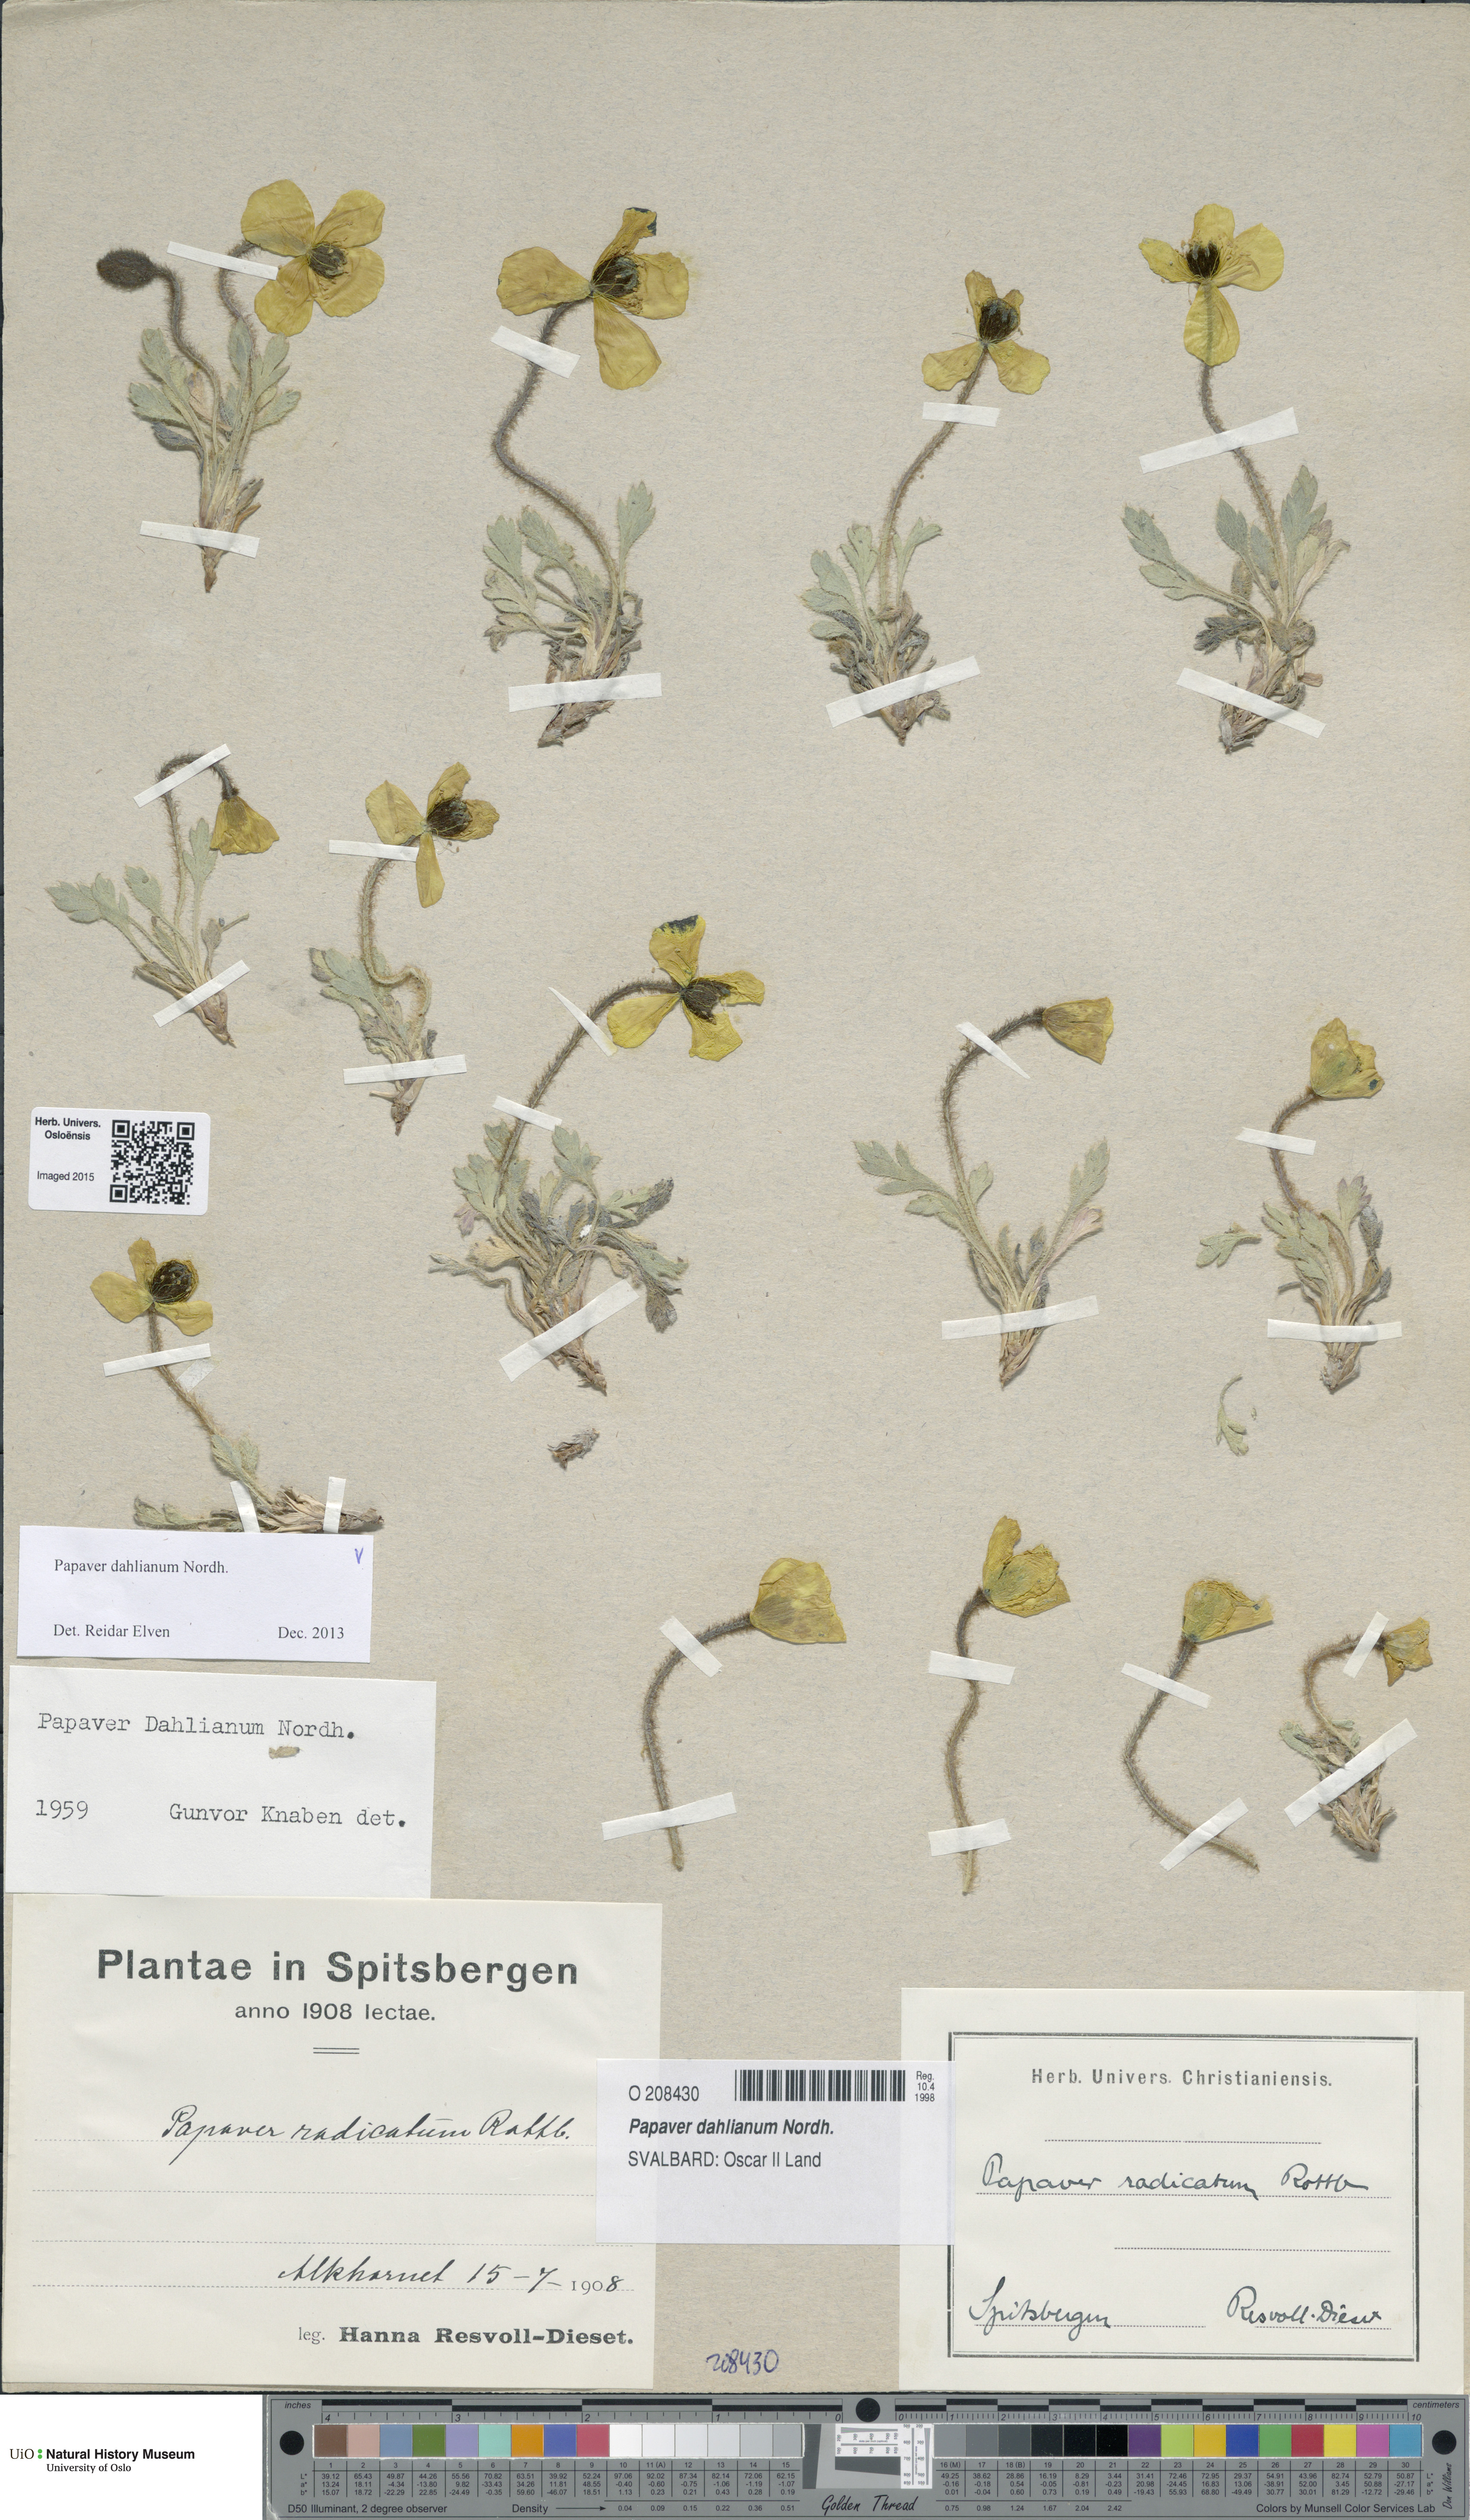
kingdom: Plantae
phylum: Tracheophyta
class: Magnoliopsida
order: Ranunculales
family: Papaveraceae
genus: Papaver
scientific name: Papaver radicatum
